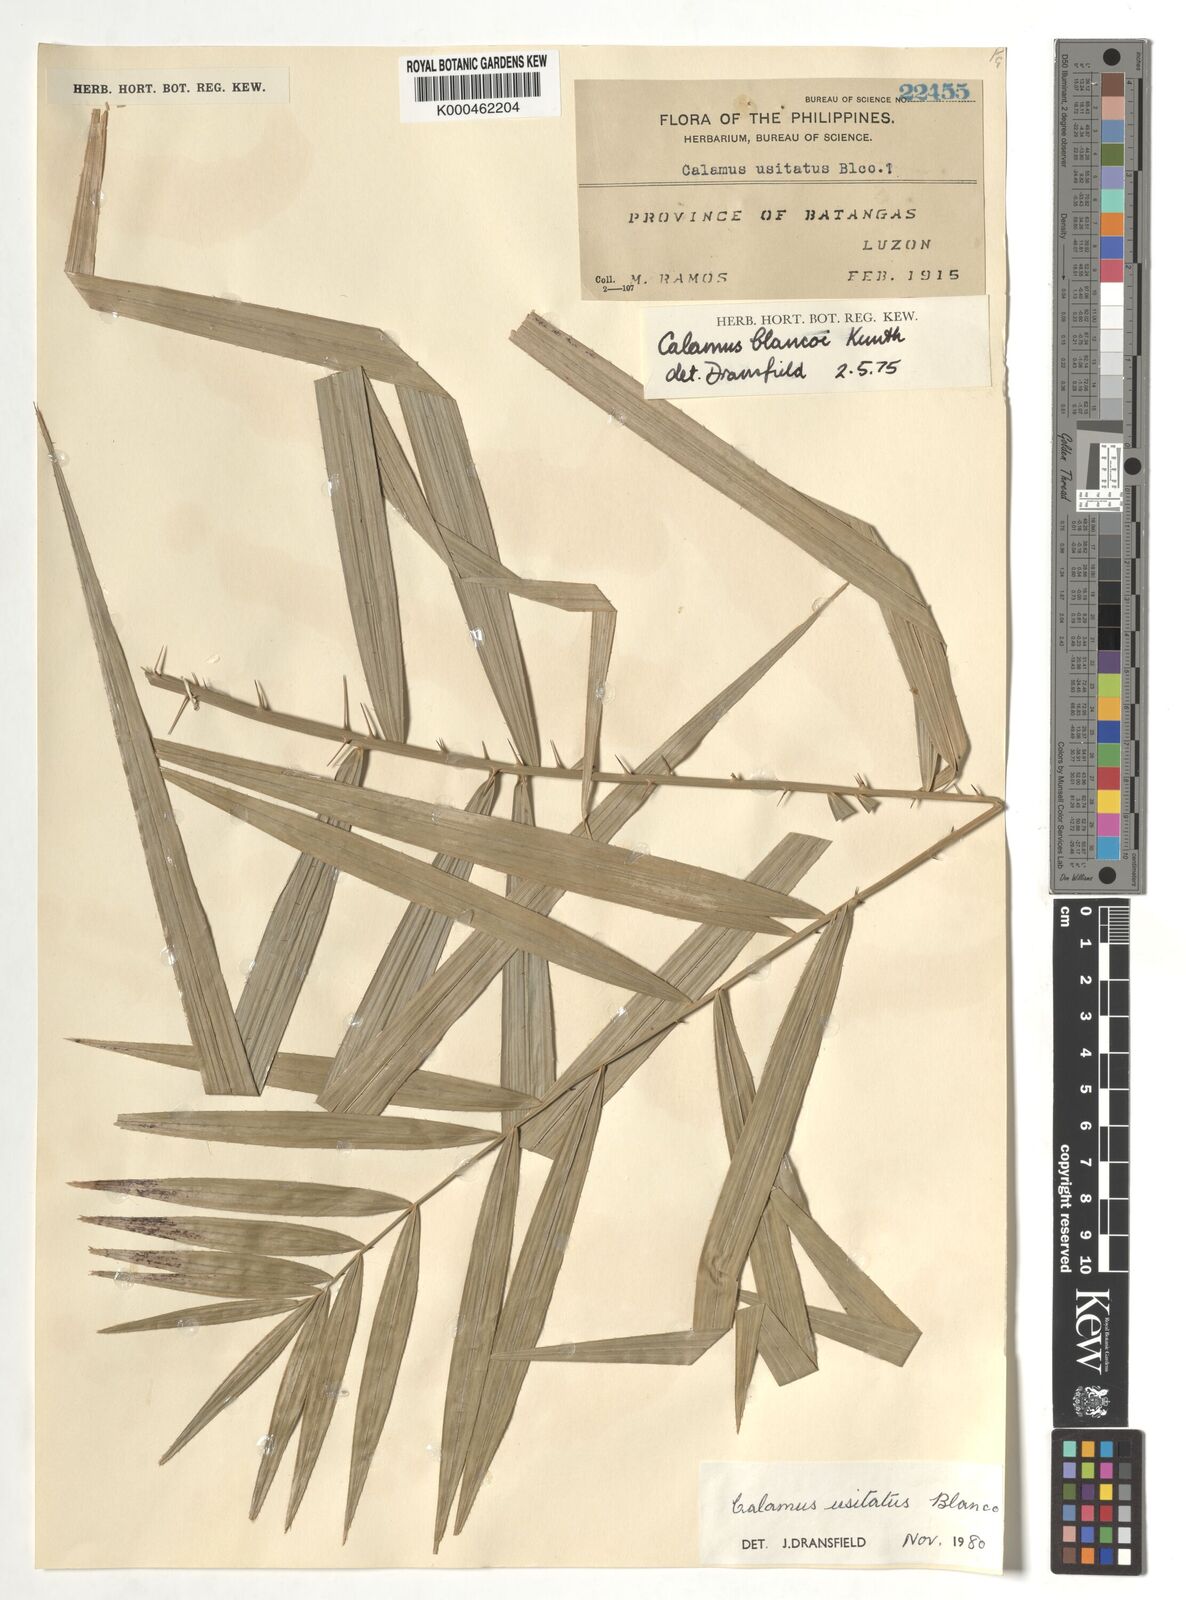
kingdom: Plantae
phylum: Tracheophyta
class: Liliopsida
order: Arecales
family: Arecaceae
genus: Calamus
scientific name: Calamus usitatus
